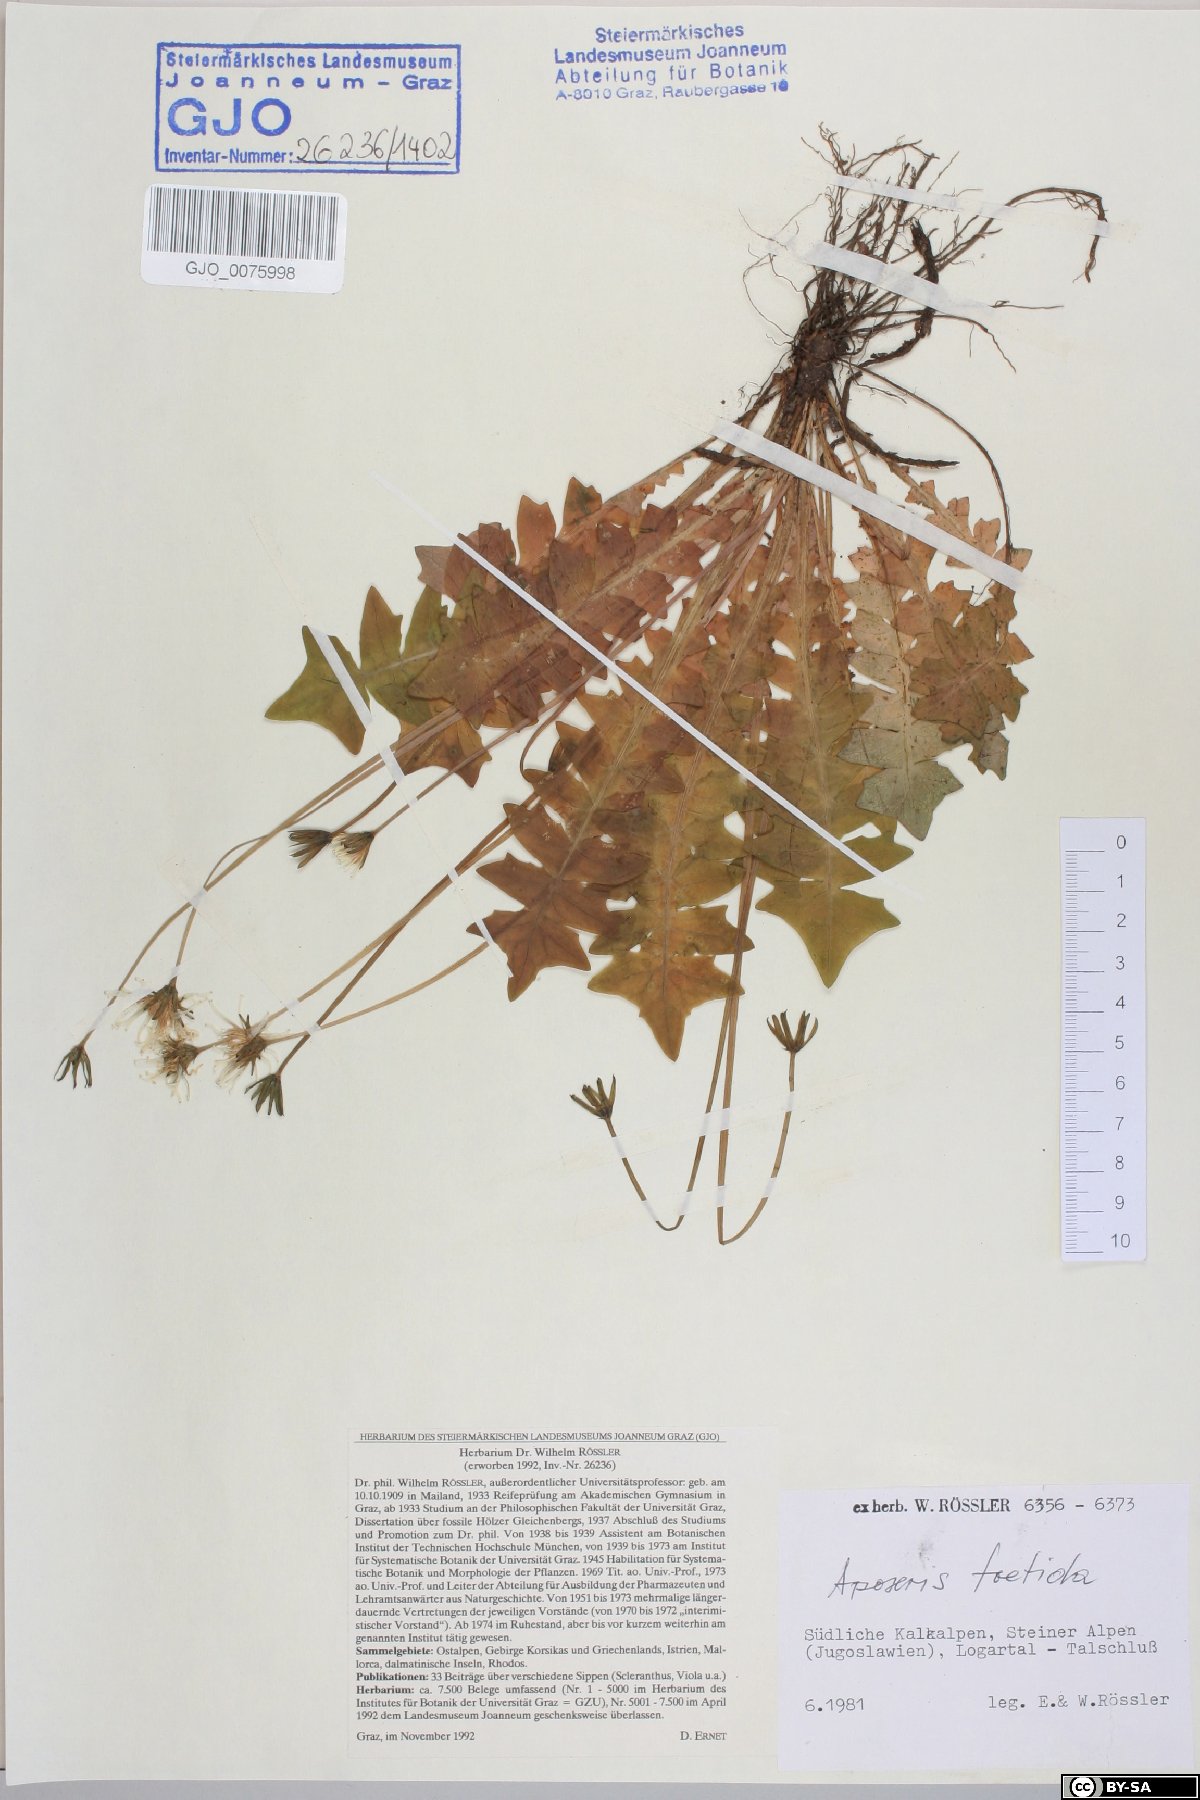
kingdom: Plantae
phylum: Tracheophyta
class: Magnoliopsida
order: Asterales
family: Asteraceae
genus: Aposeris
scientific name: Aposeris foetida
